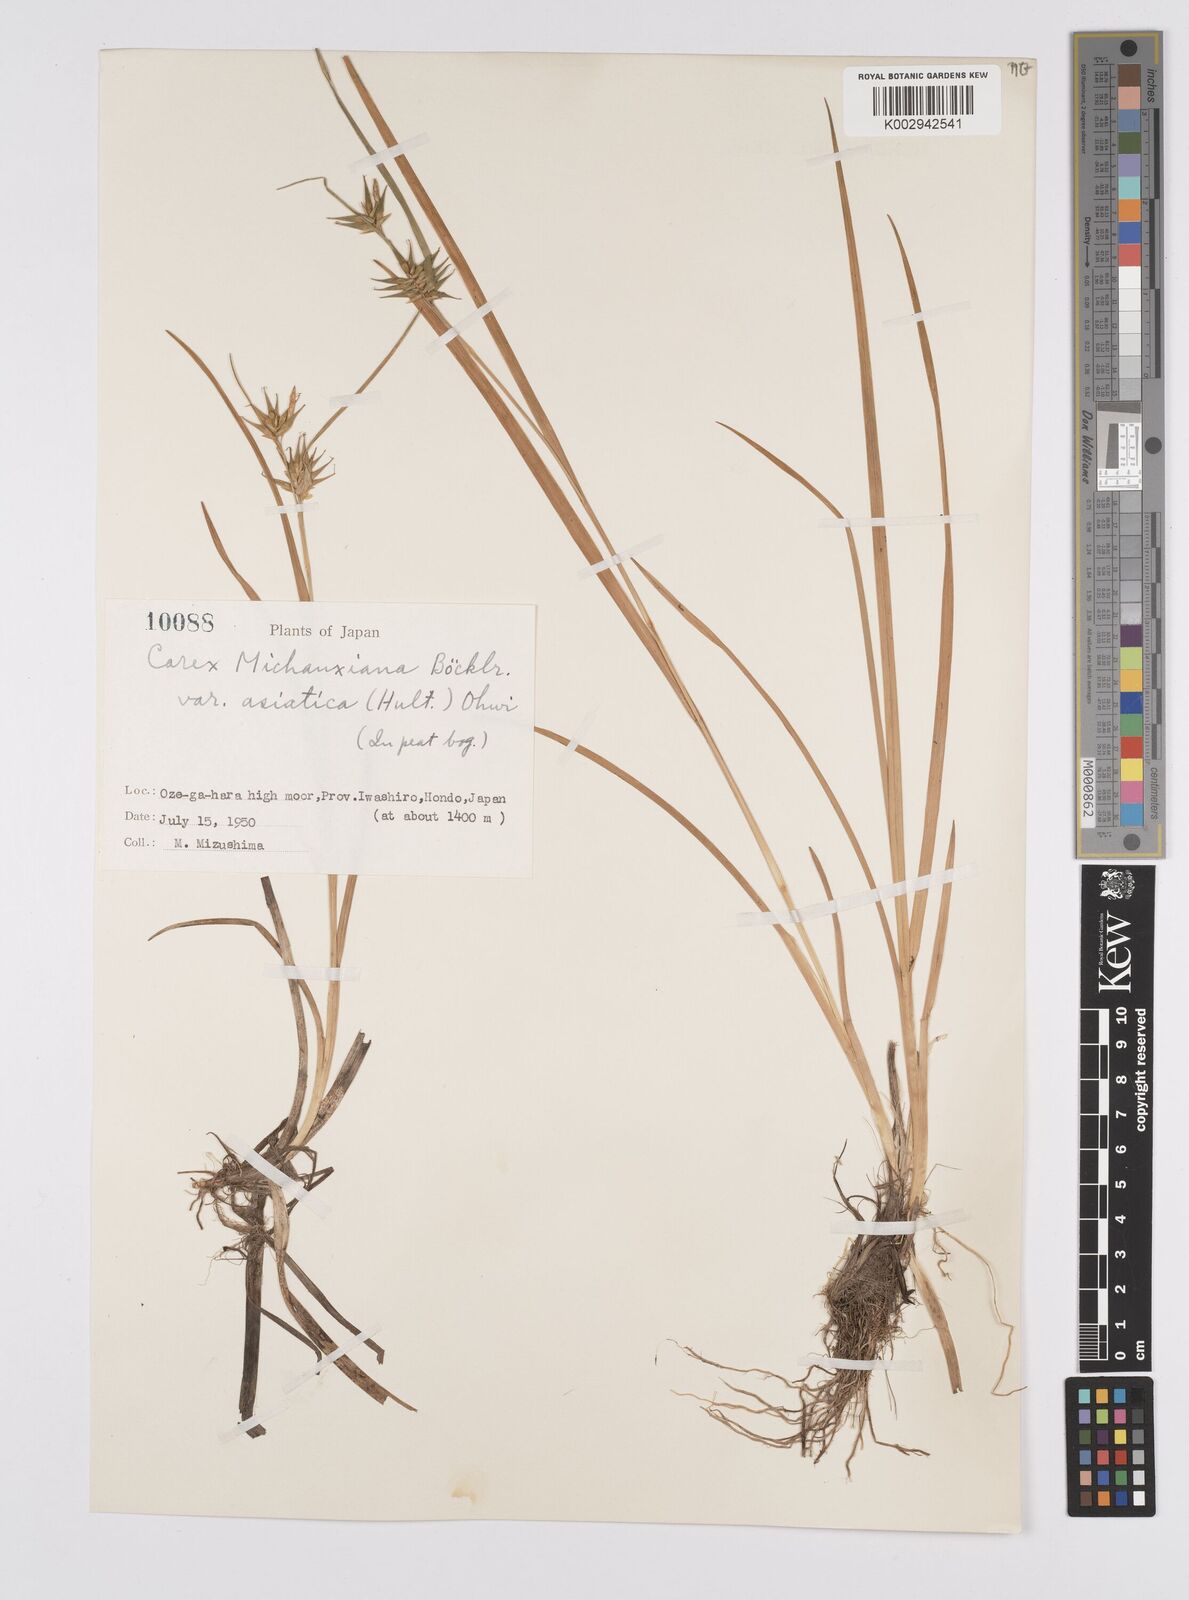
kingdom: Plantae
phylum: Tracheophyta
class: Liliopsida
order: Poales
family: Cyperaceae
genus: Carex
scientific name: Carex michauxiana
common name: Michaux's sedge
